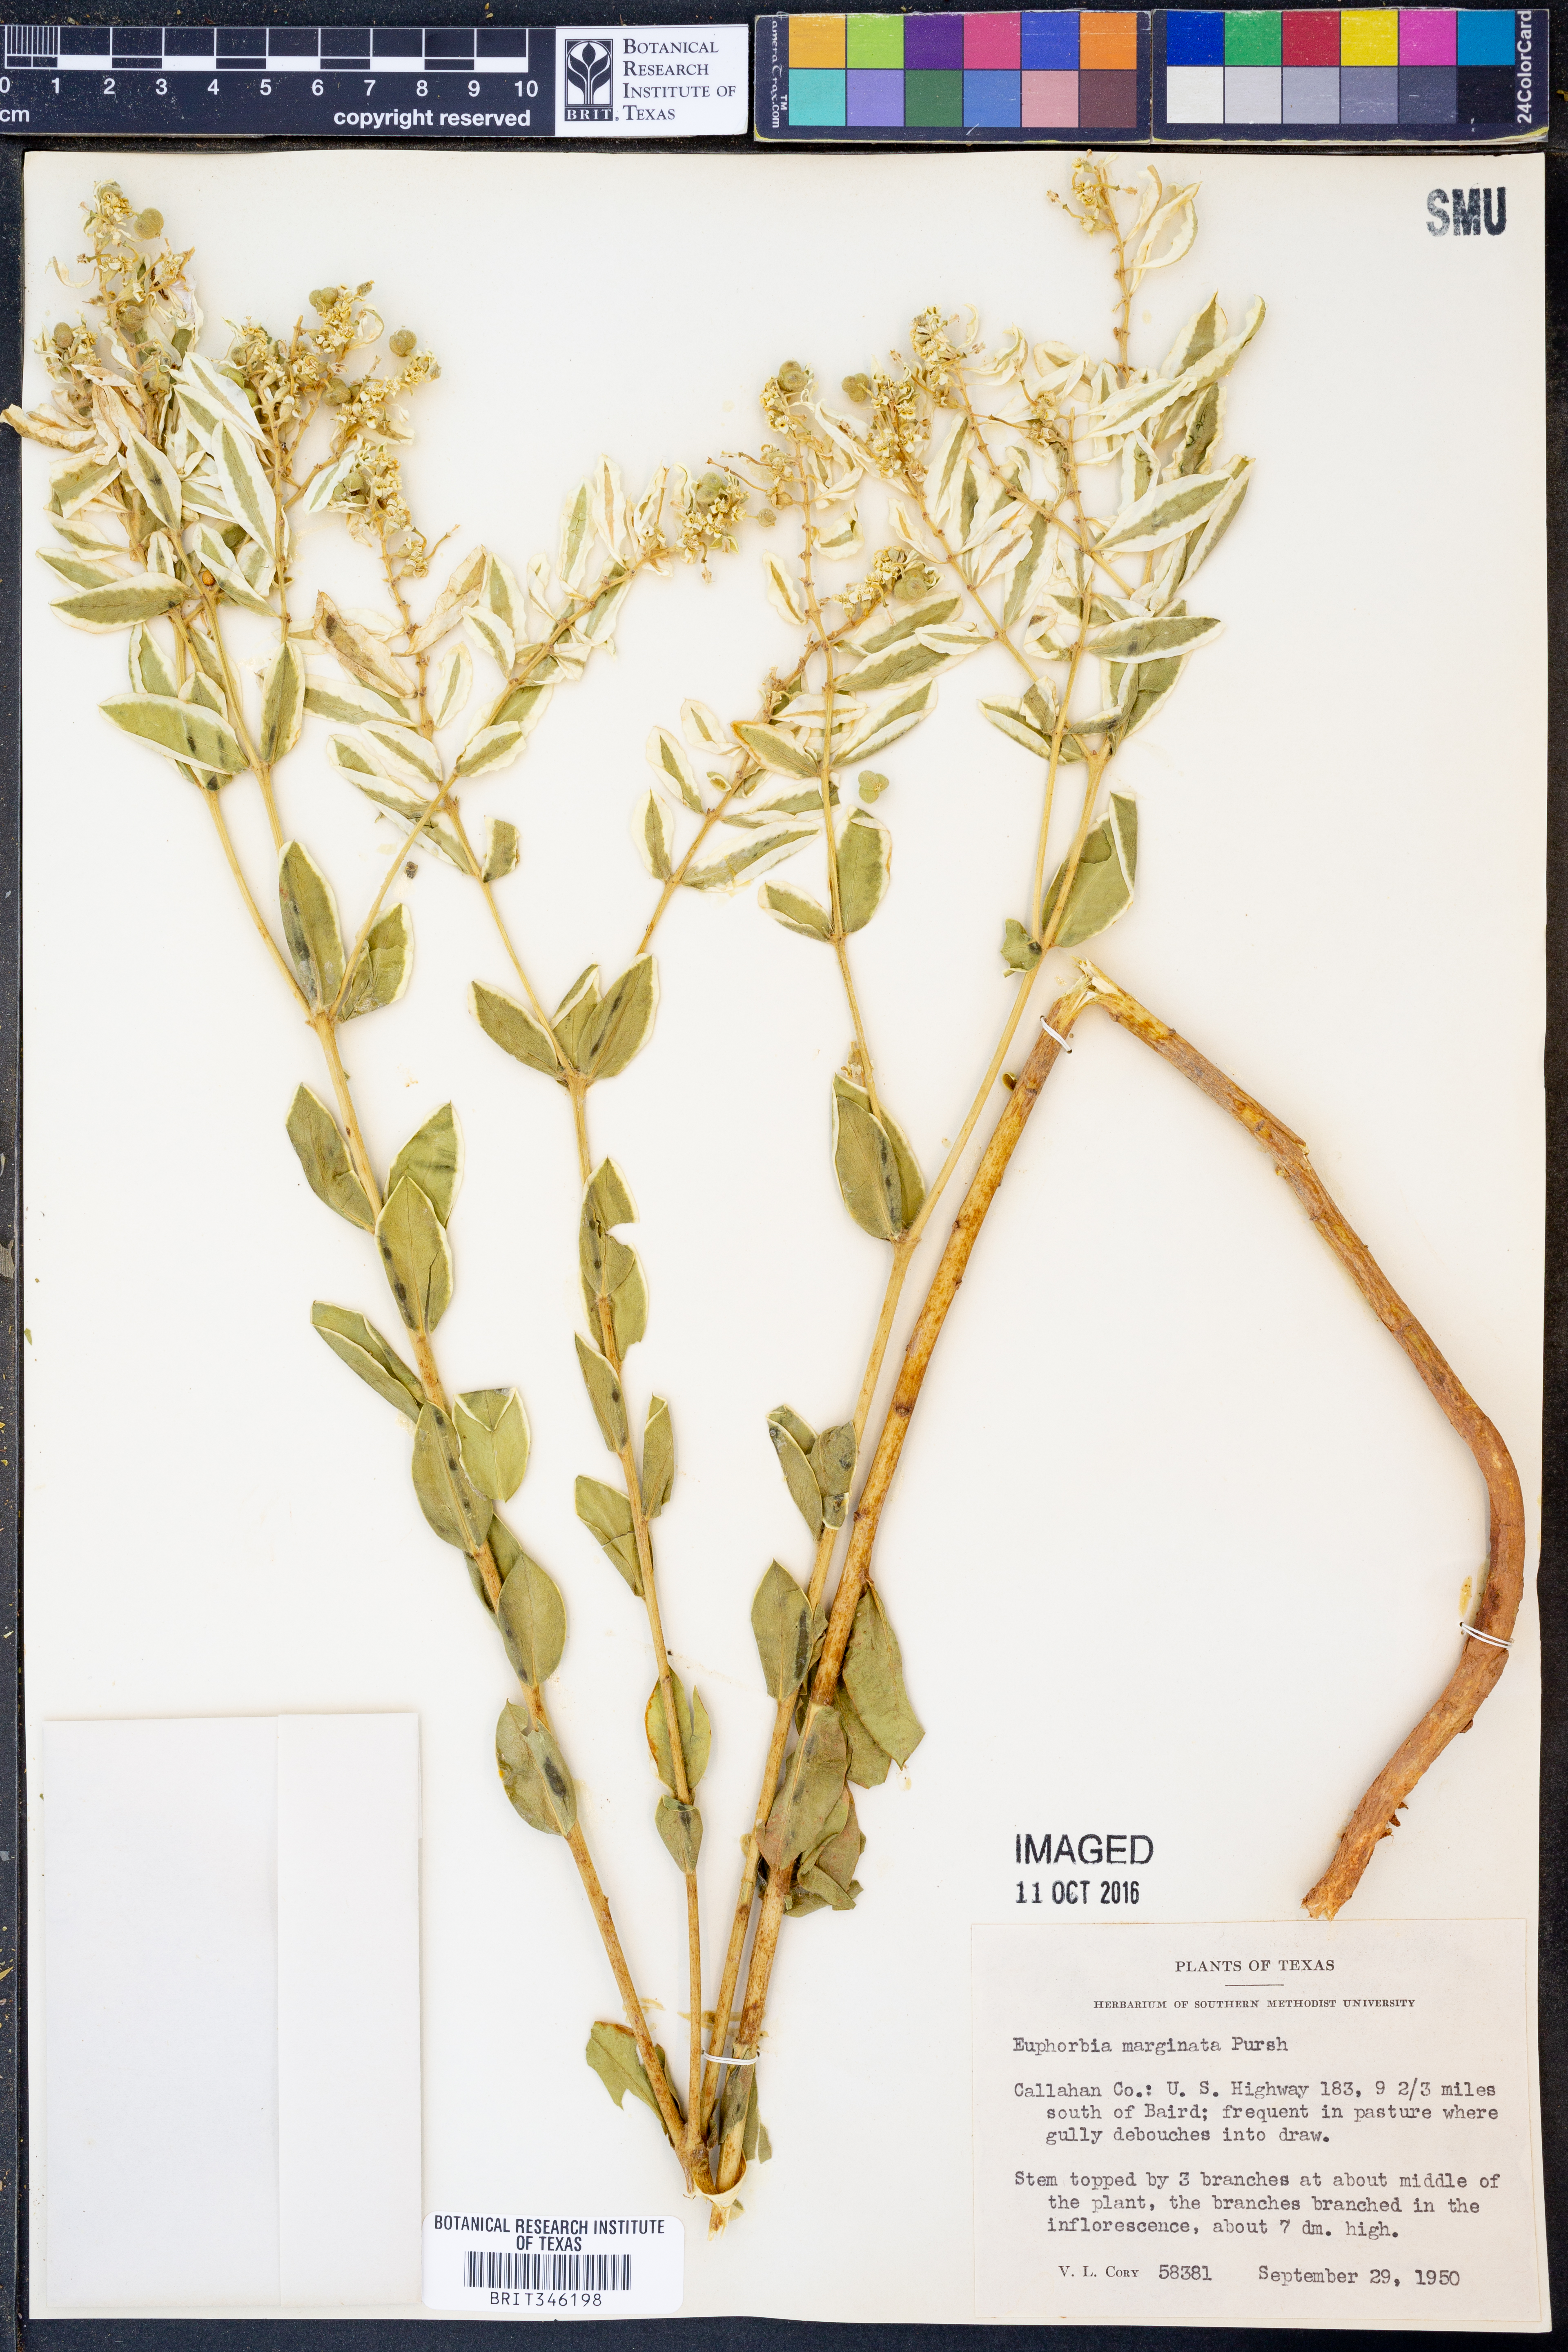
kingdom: Plantae
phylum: Tracheophyta
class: Magnoliopsida
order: Malpighiales
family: Euphorbiaceae
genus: Euphorbia
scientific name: Euphorbia marginata
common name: Ghostweed
